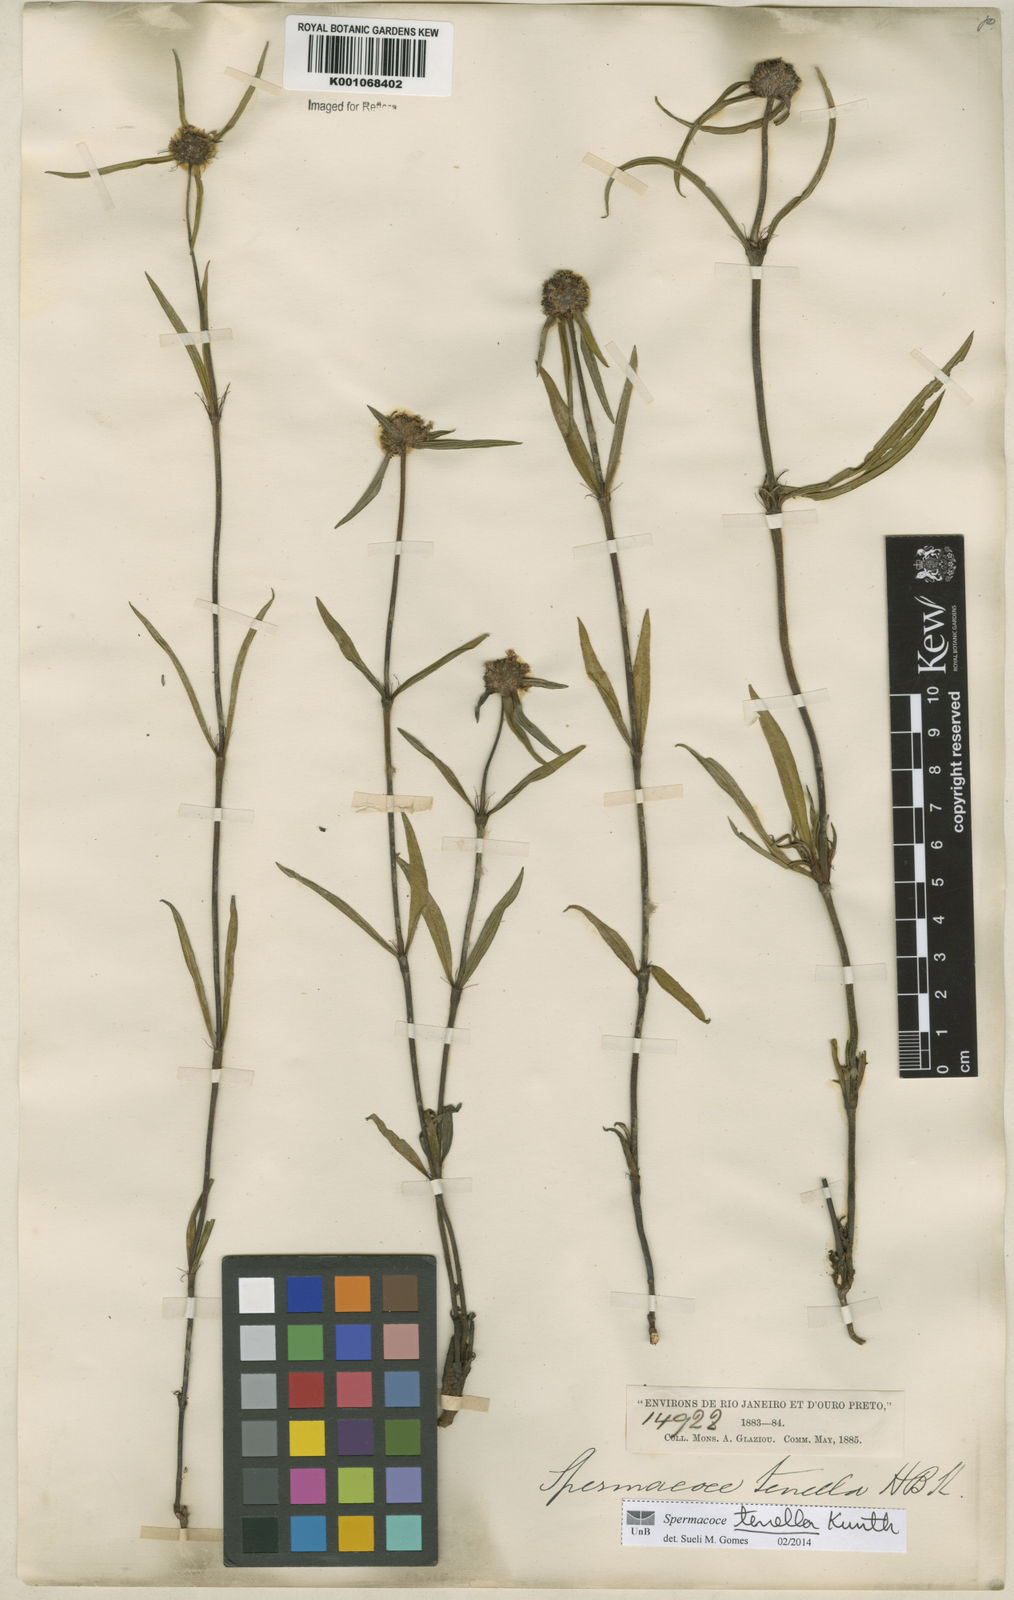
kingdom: Plantae
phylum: Tracheophyta
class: Magnoliopsida
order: Gentianales
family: Rubiaceae
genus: Spermacoce
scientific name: Spermacoce orinocensis
